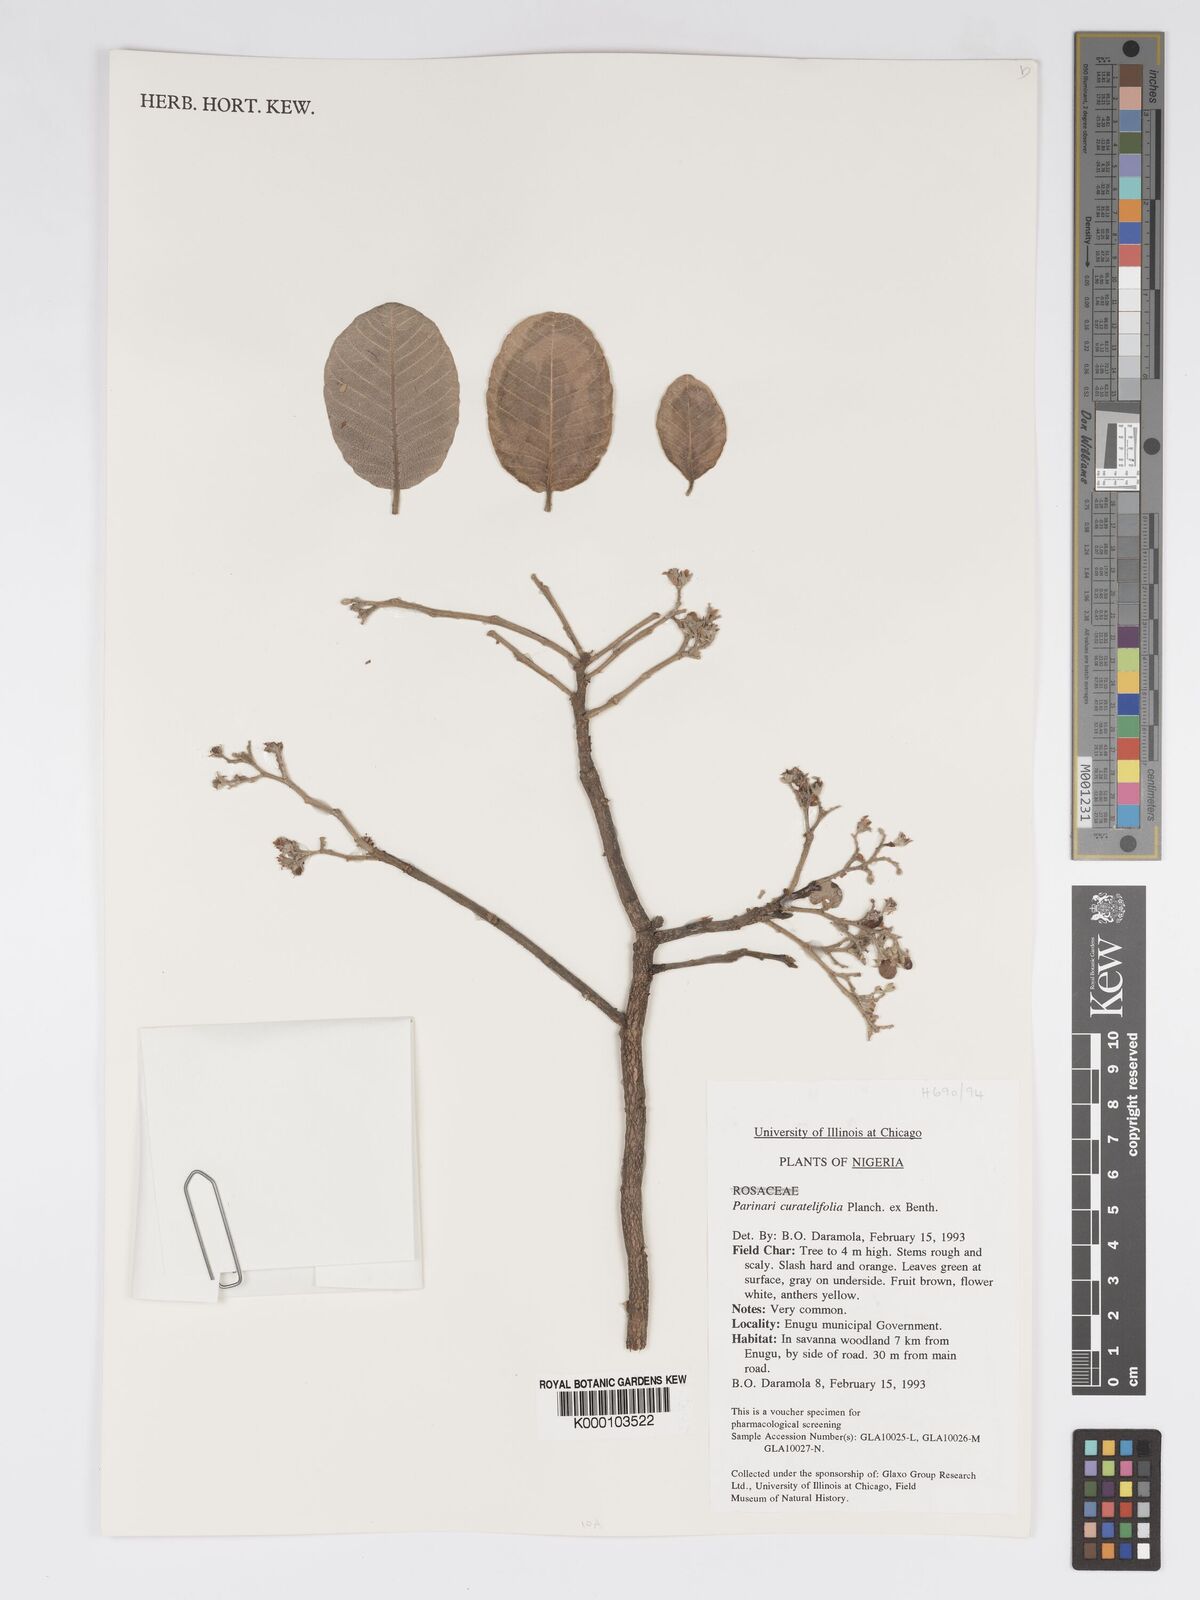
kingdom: Plantae
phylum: Tracheophyta
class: Magnoliopsida
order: Malpighiales
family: Chrysobalanaceae
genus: Parinari
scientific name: Parinari curatellifolia
